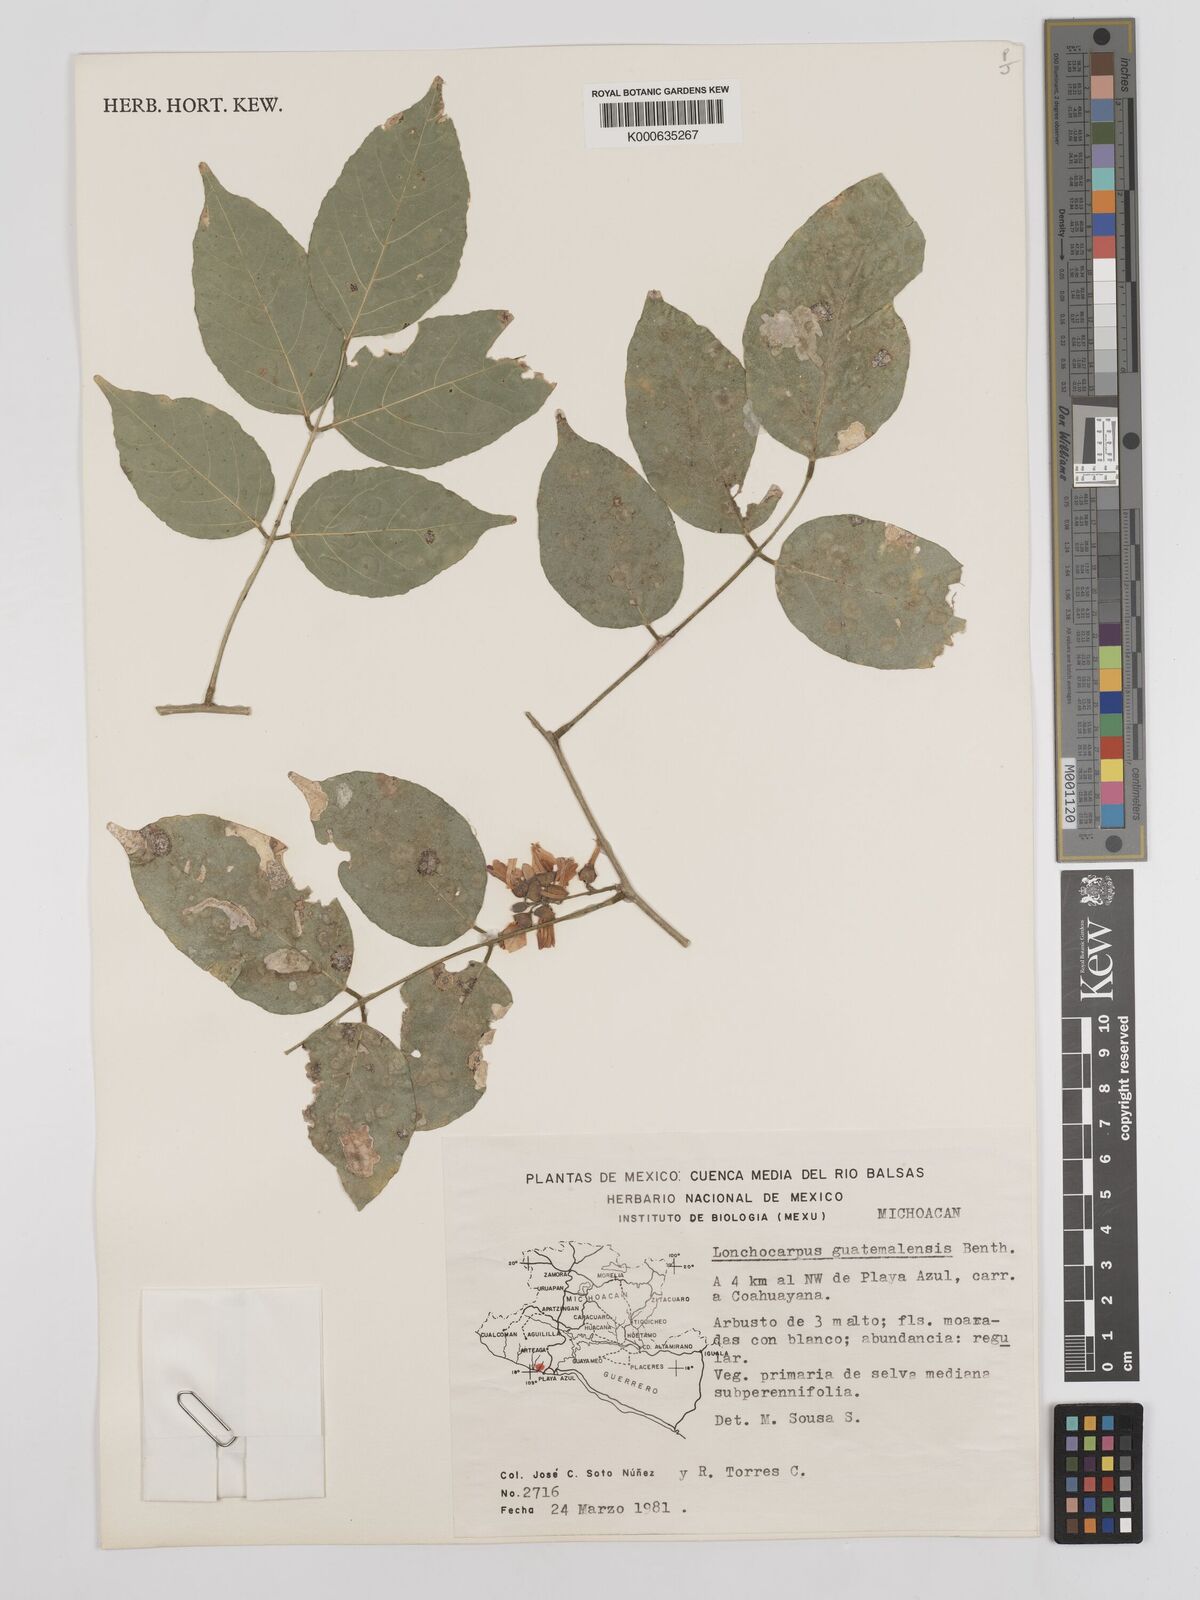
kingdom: Plantae
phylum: Tracheophyta
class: Magnoliopsida
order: Fabales
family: Fabaceae
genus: Lonchocarpus
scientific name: Lonchocarpus guatemalensis
